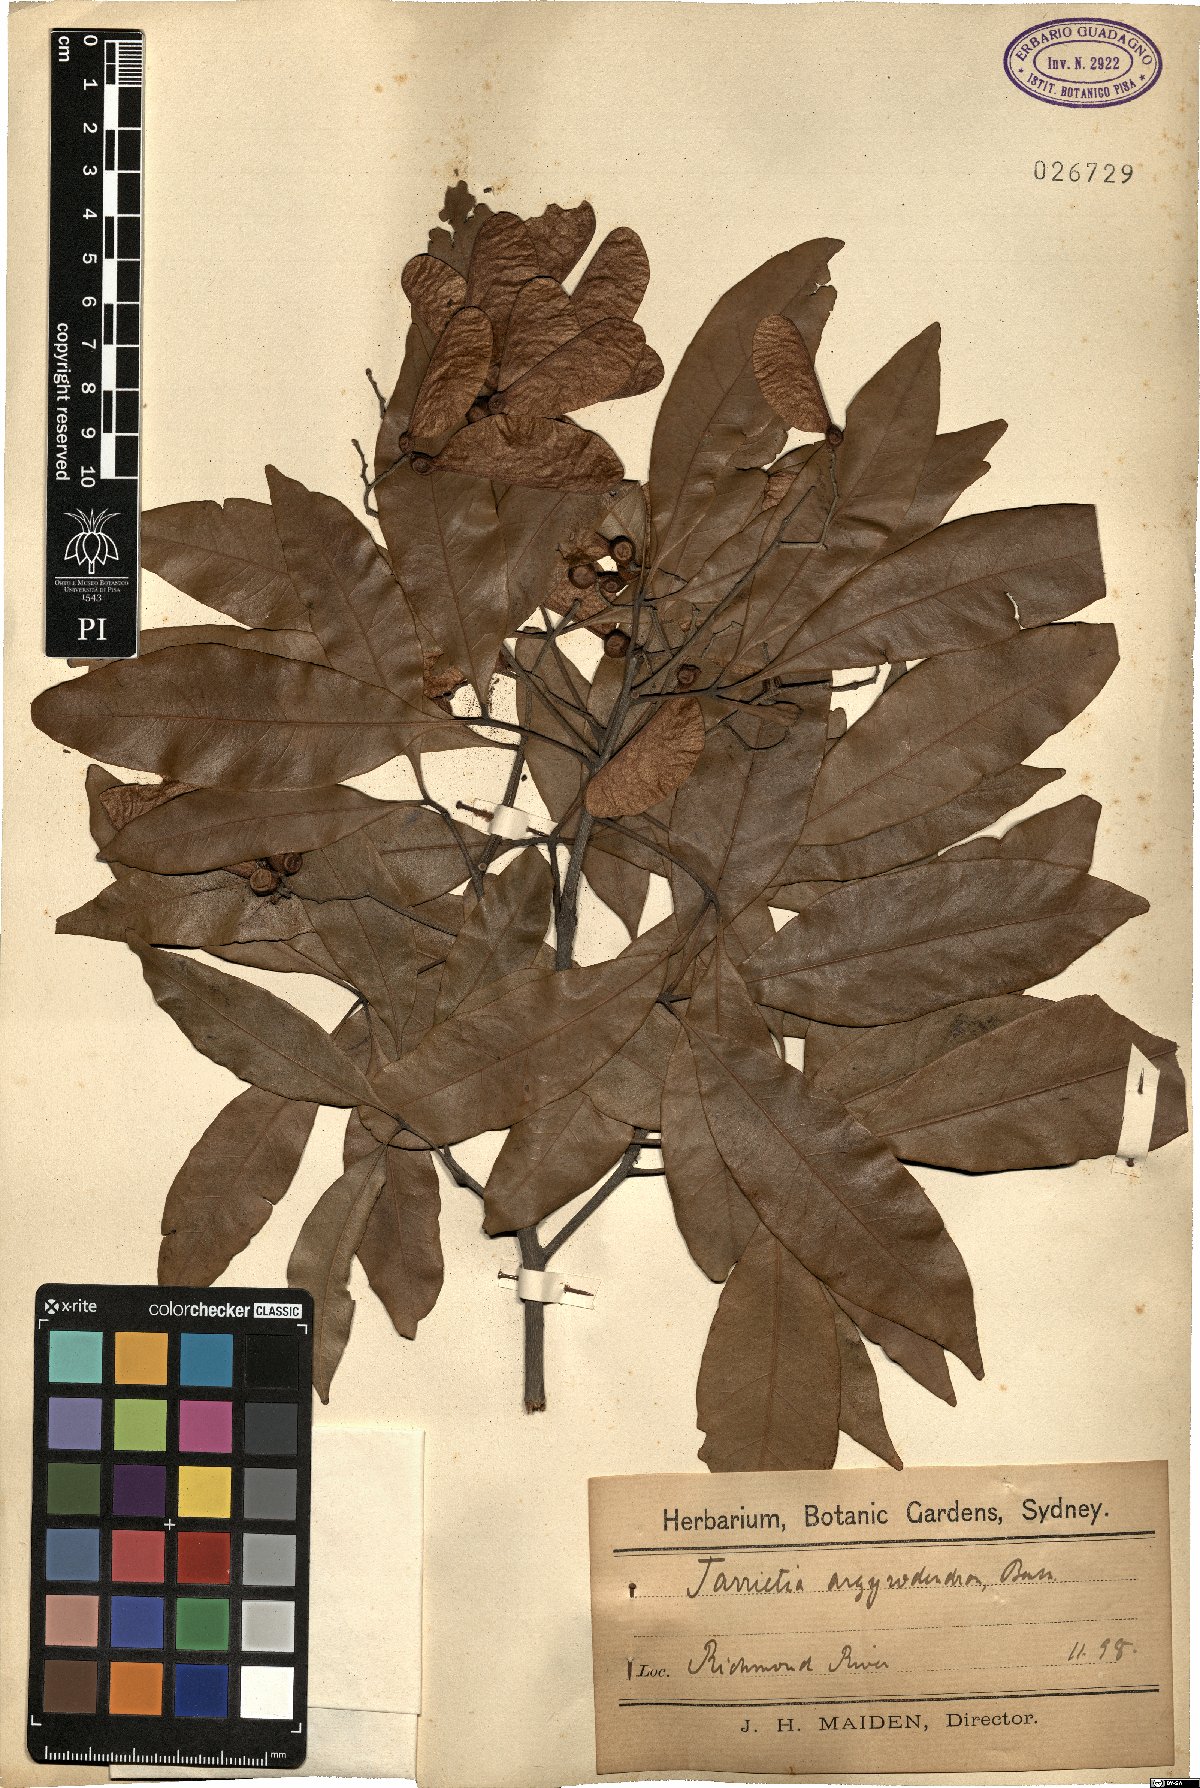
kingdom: Plantae
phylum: Tracheophyta
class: Magnoliopsida
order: Malvales
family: Malvaceae
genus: Argyrodendron
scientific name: Argyrodendron trifoliolatum
